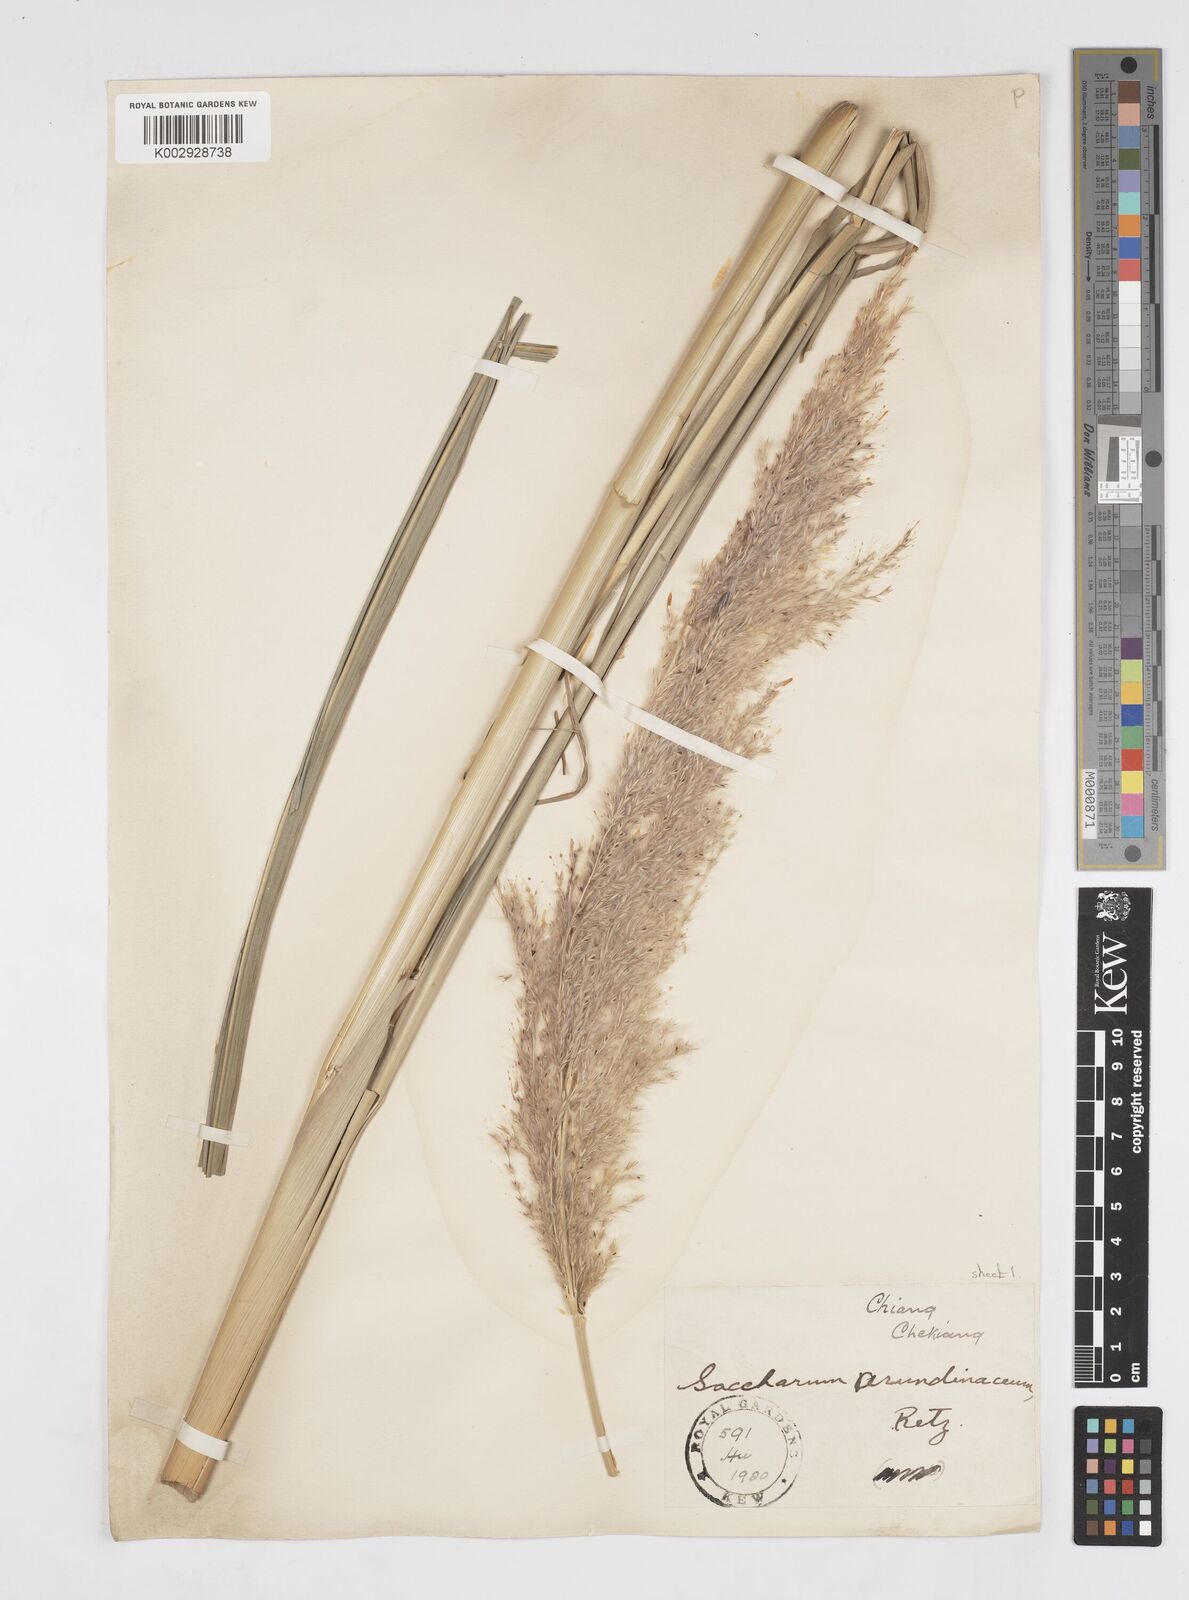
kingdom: Plantae
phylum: Tracheophyta
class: Liliopsida
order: Poales
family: Poaceae
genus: Tripidium
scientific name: Tripidium arundinaceum
